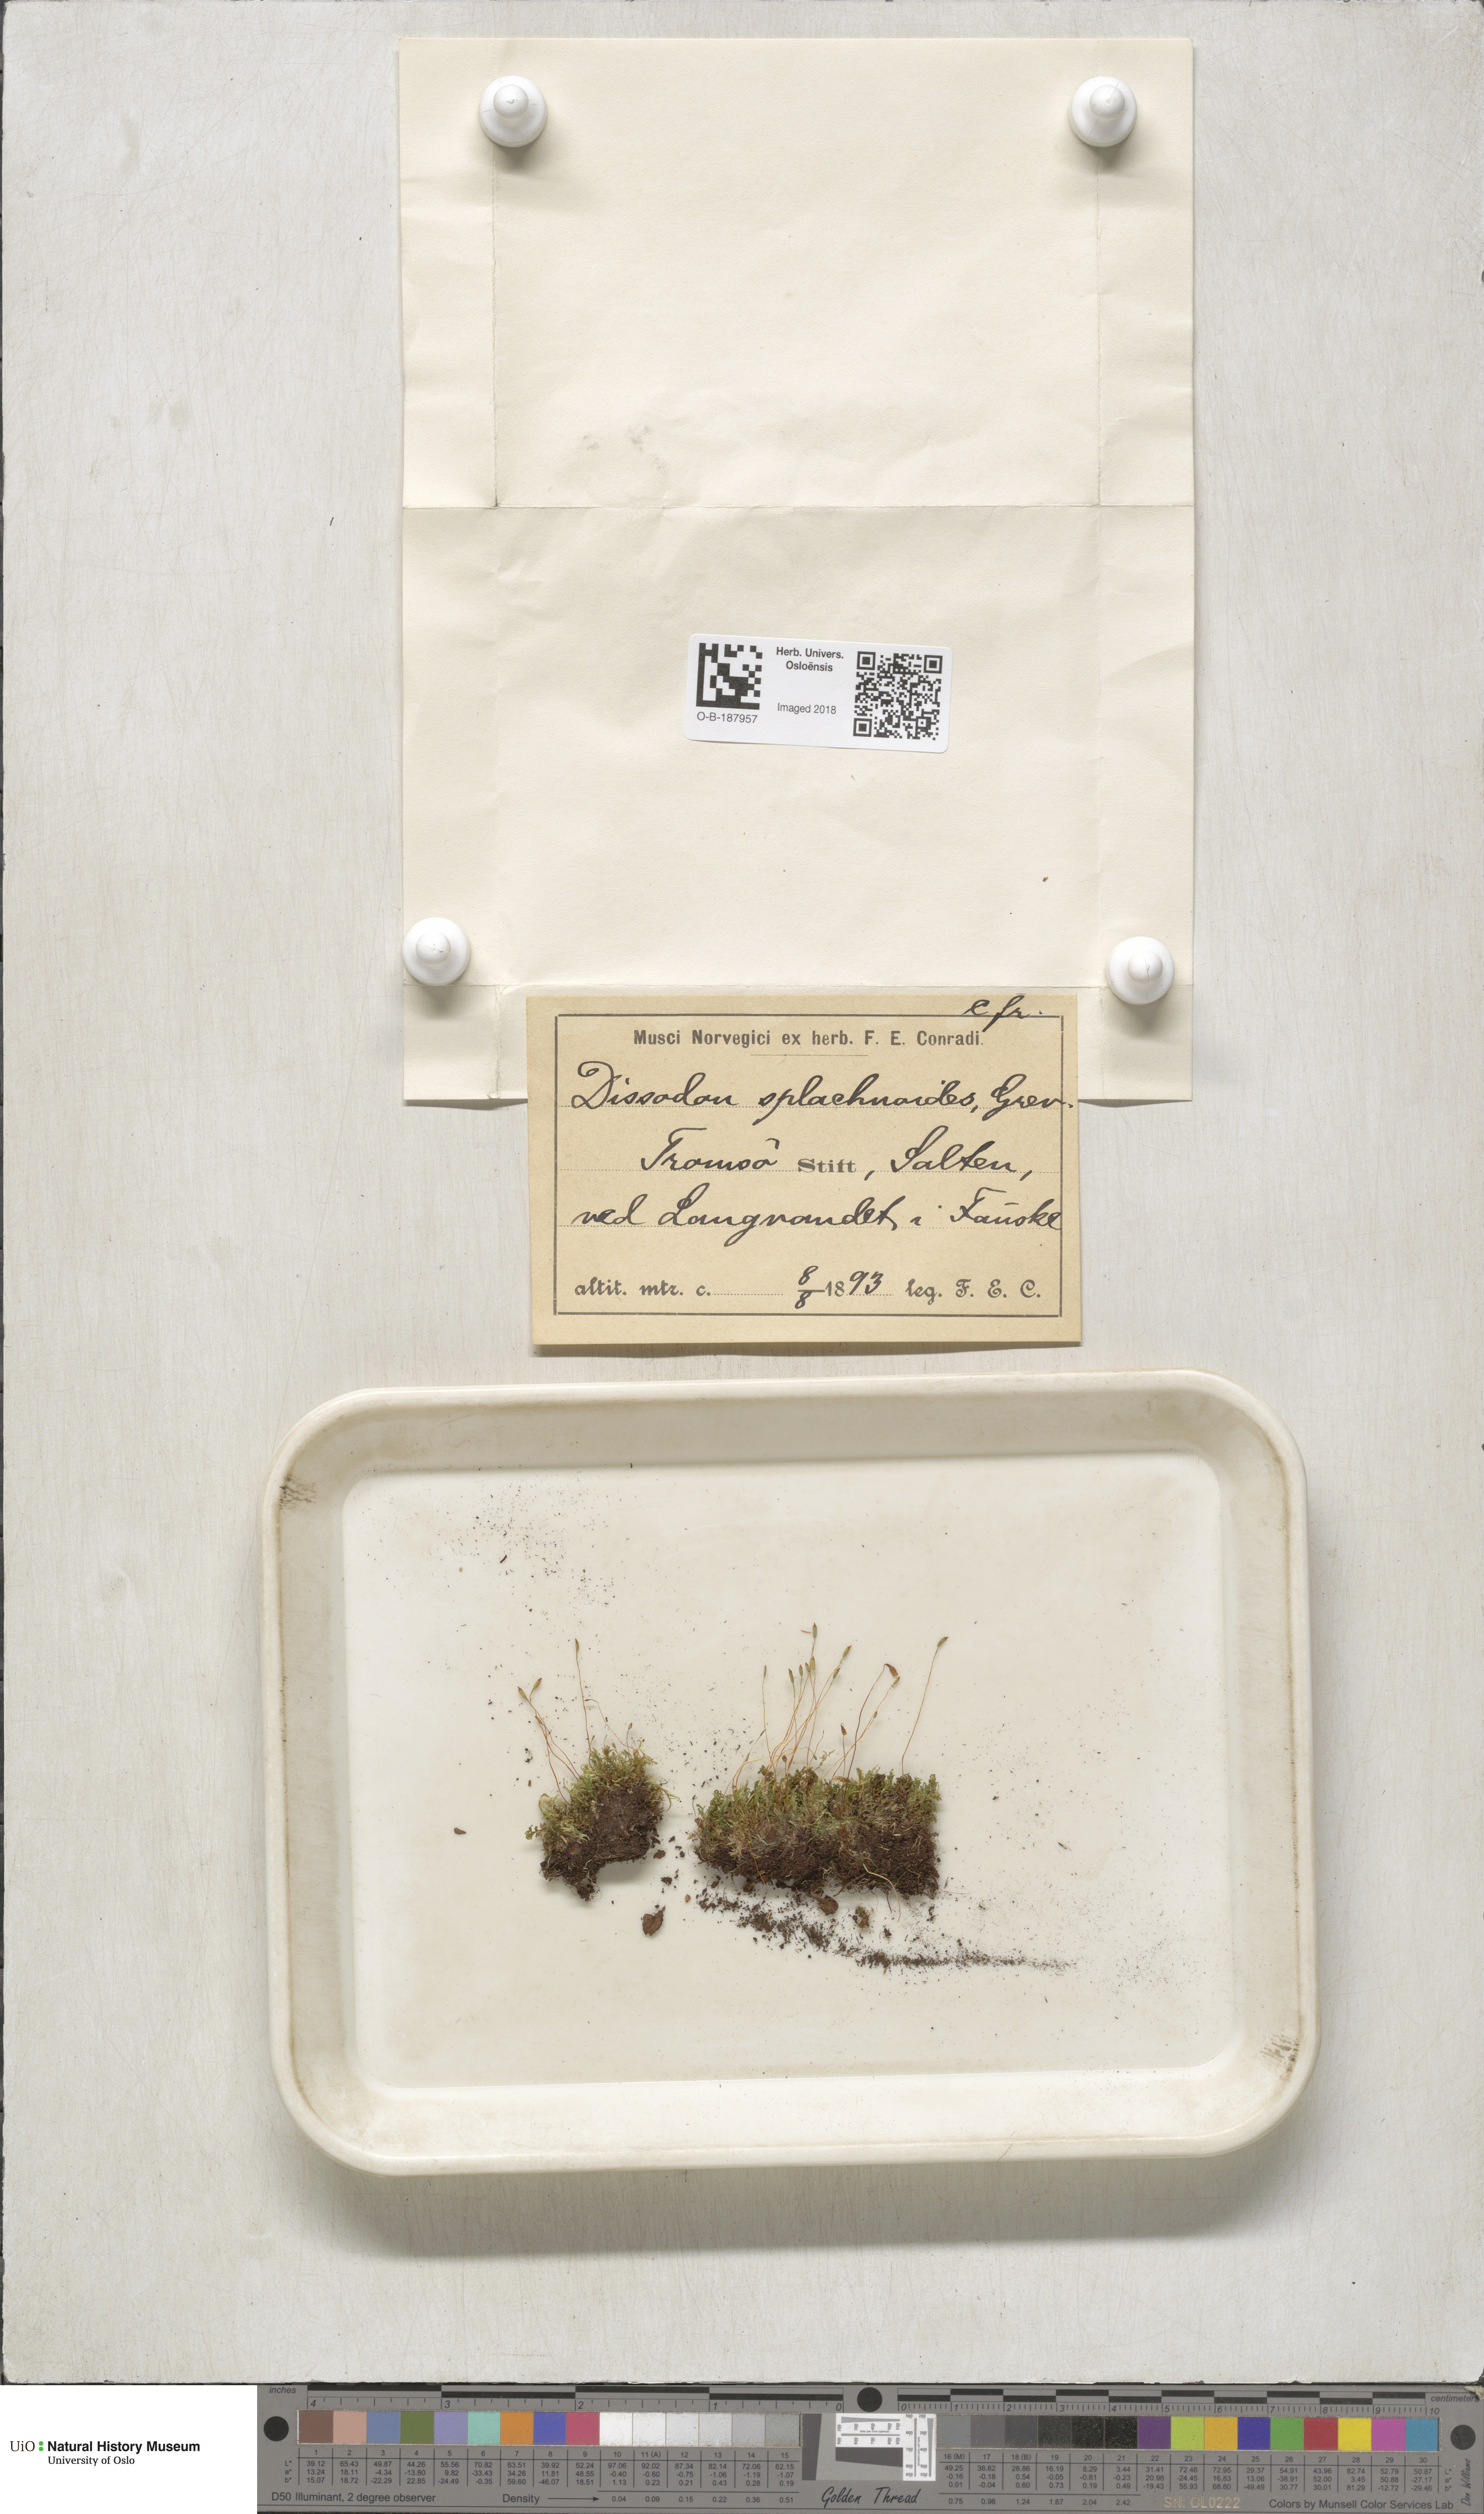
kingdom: Plantae
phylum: Bryophyta
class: Bryopsida
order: Splachnales
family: Splachnaceae
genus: Tayloria
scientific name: Tayloria lingulata
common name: Tongue-leaved trumpet moss
